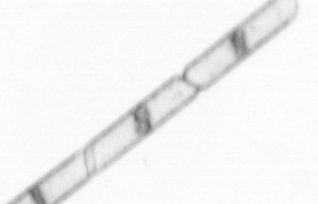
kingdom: Chromista
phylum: Ochrophyta
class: Bacillariophyceae
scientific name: Bacillariophyceae
